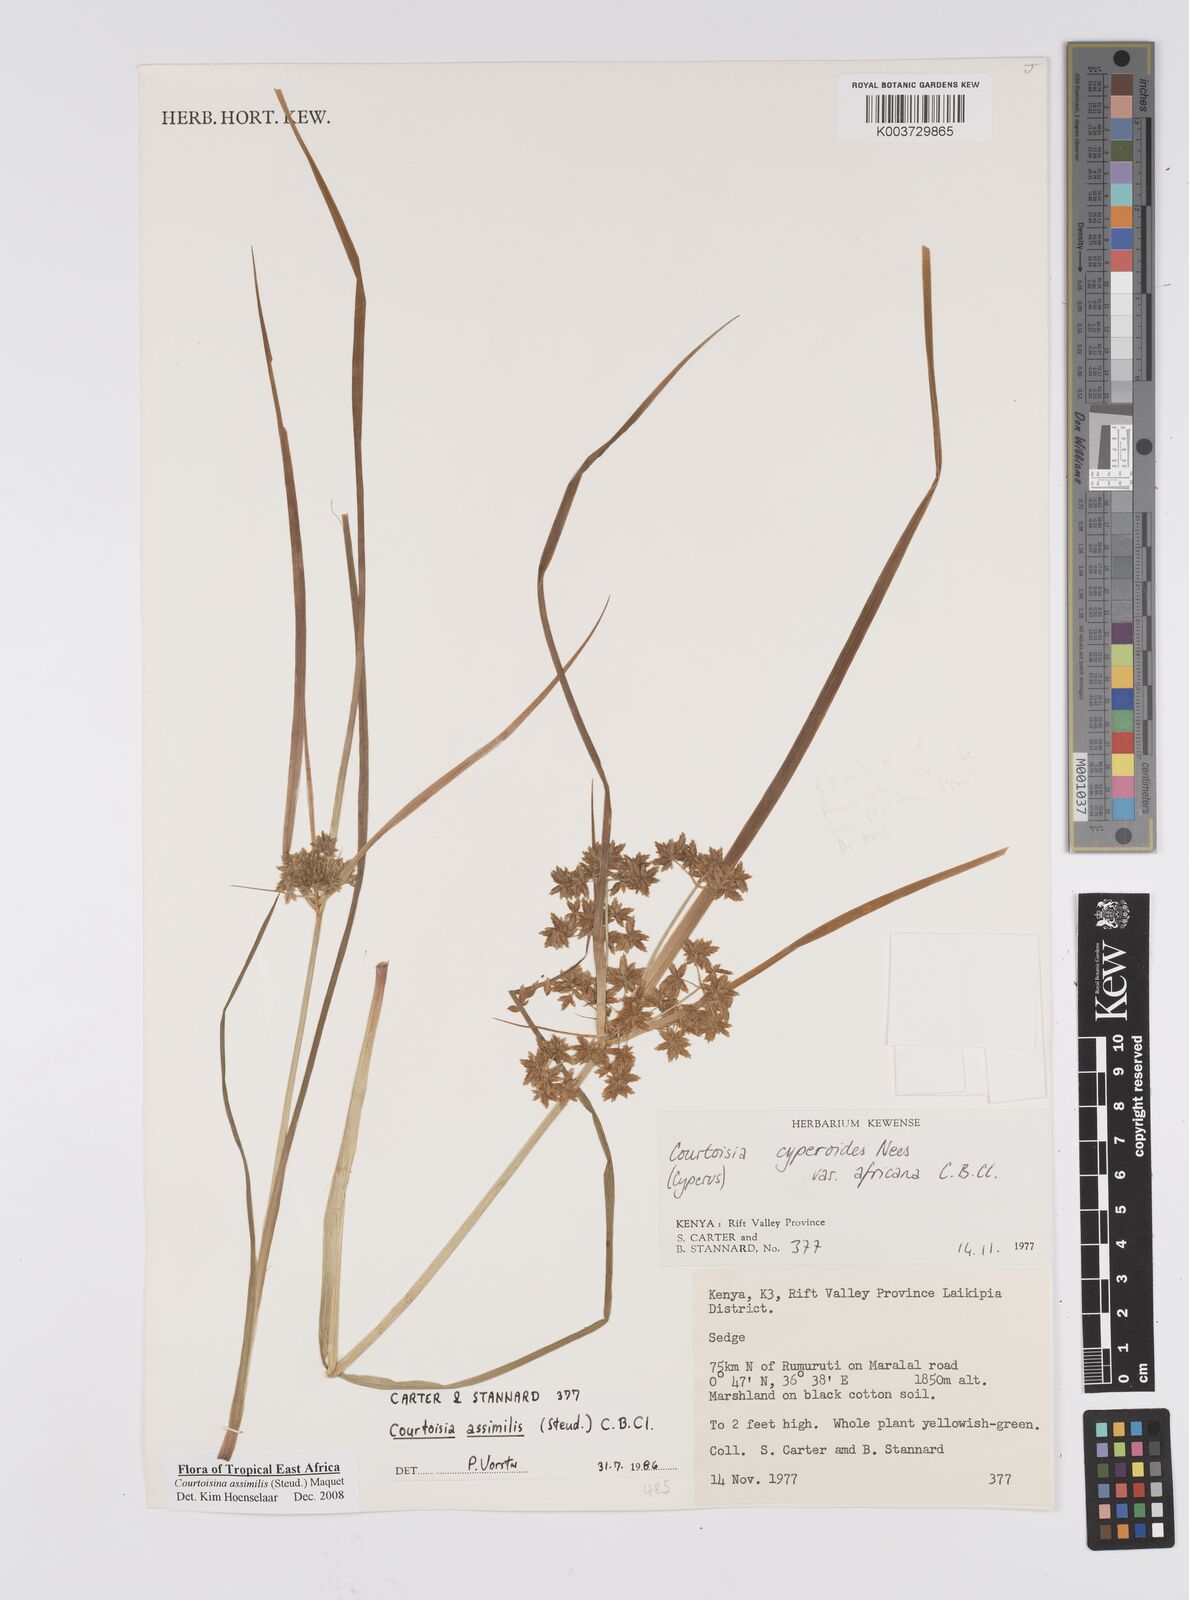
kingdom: Plantae
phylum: Tracheophyta
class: Liliopsida
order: Poales
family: Cyperaceae
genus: Cyperus
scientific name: Cyperus assimilis
